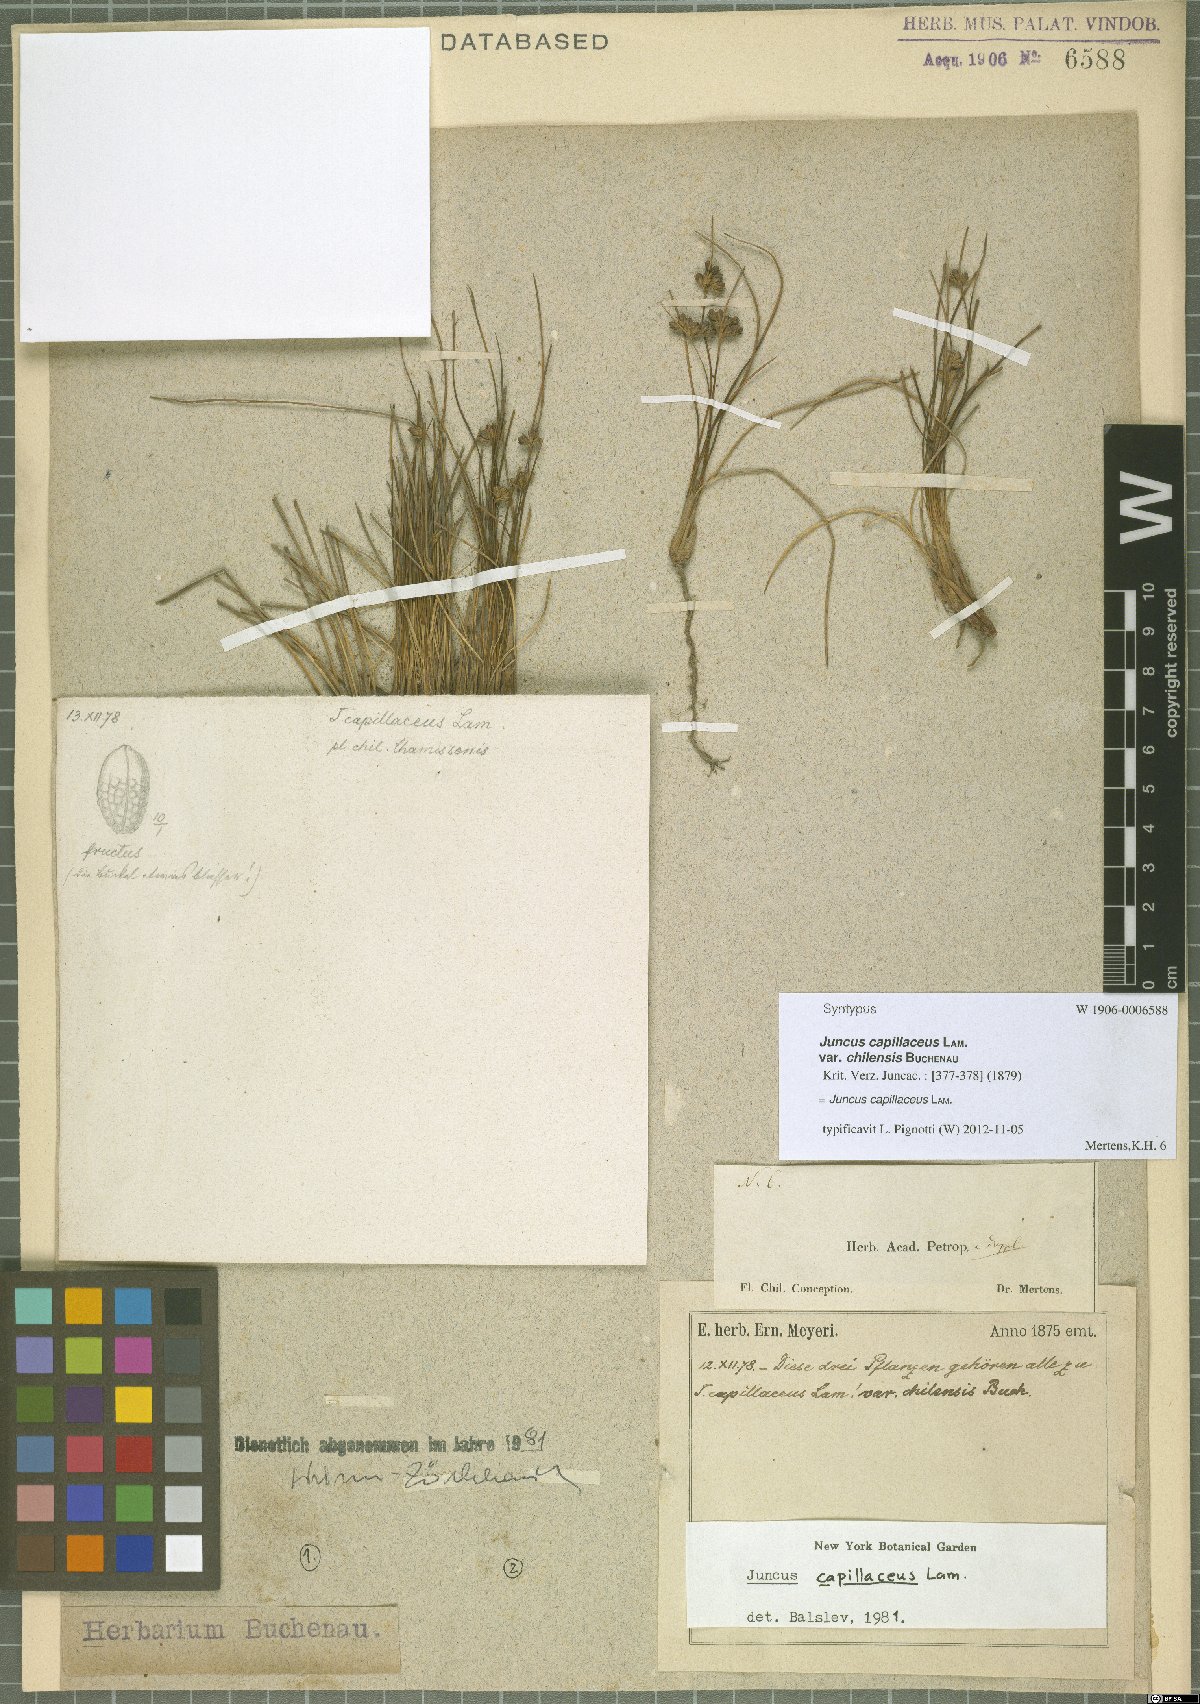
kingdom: Plantae
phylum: Tracheophyta
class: Liliopsida
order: Poales
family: Juncaceae
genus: Juncus
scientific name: Juncus imbricatus
